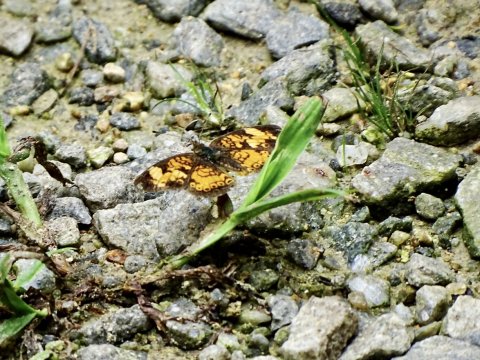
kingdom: Animalia
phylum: Arthropoda
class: Insecta
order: Lepidoptera
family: Nymphalidae
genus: Phyciodes
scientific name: Phyciodes tharos
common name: Pearl Crescent
